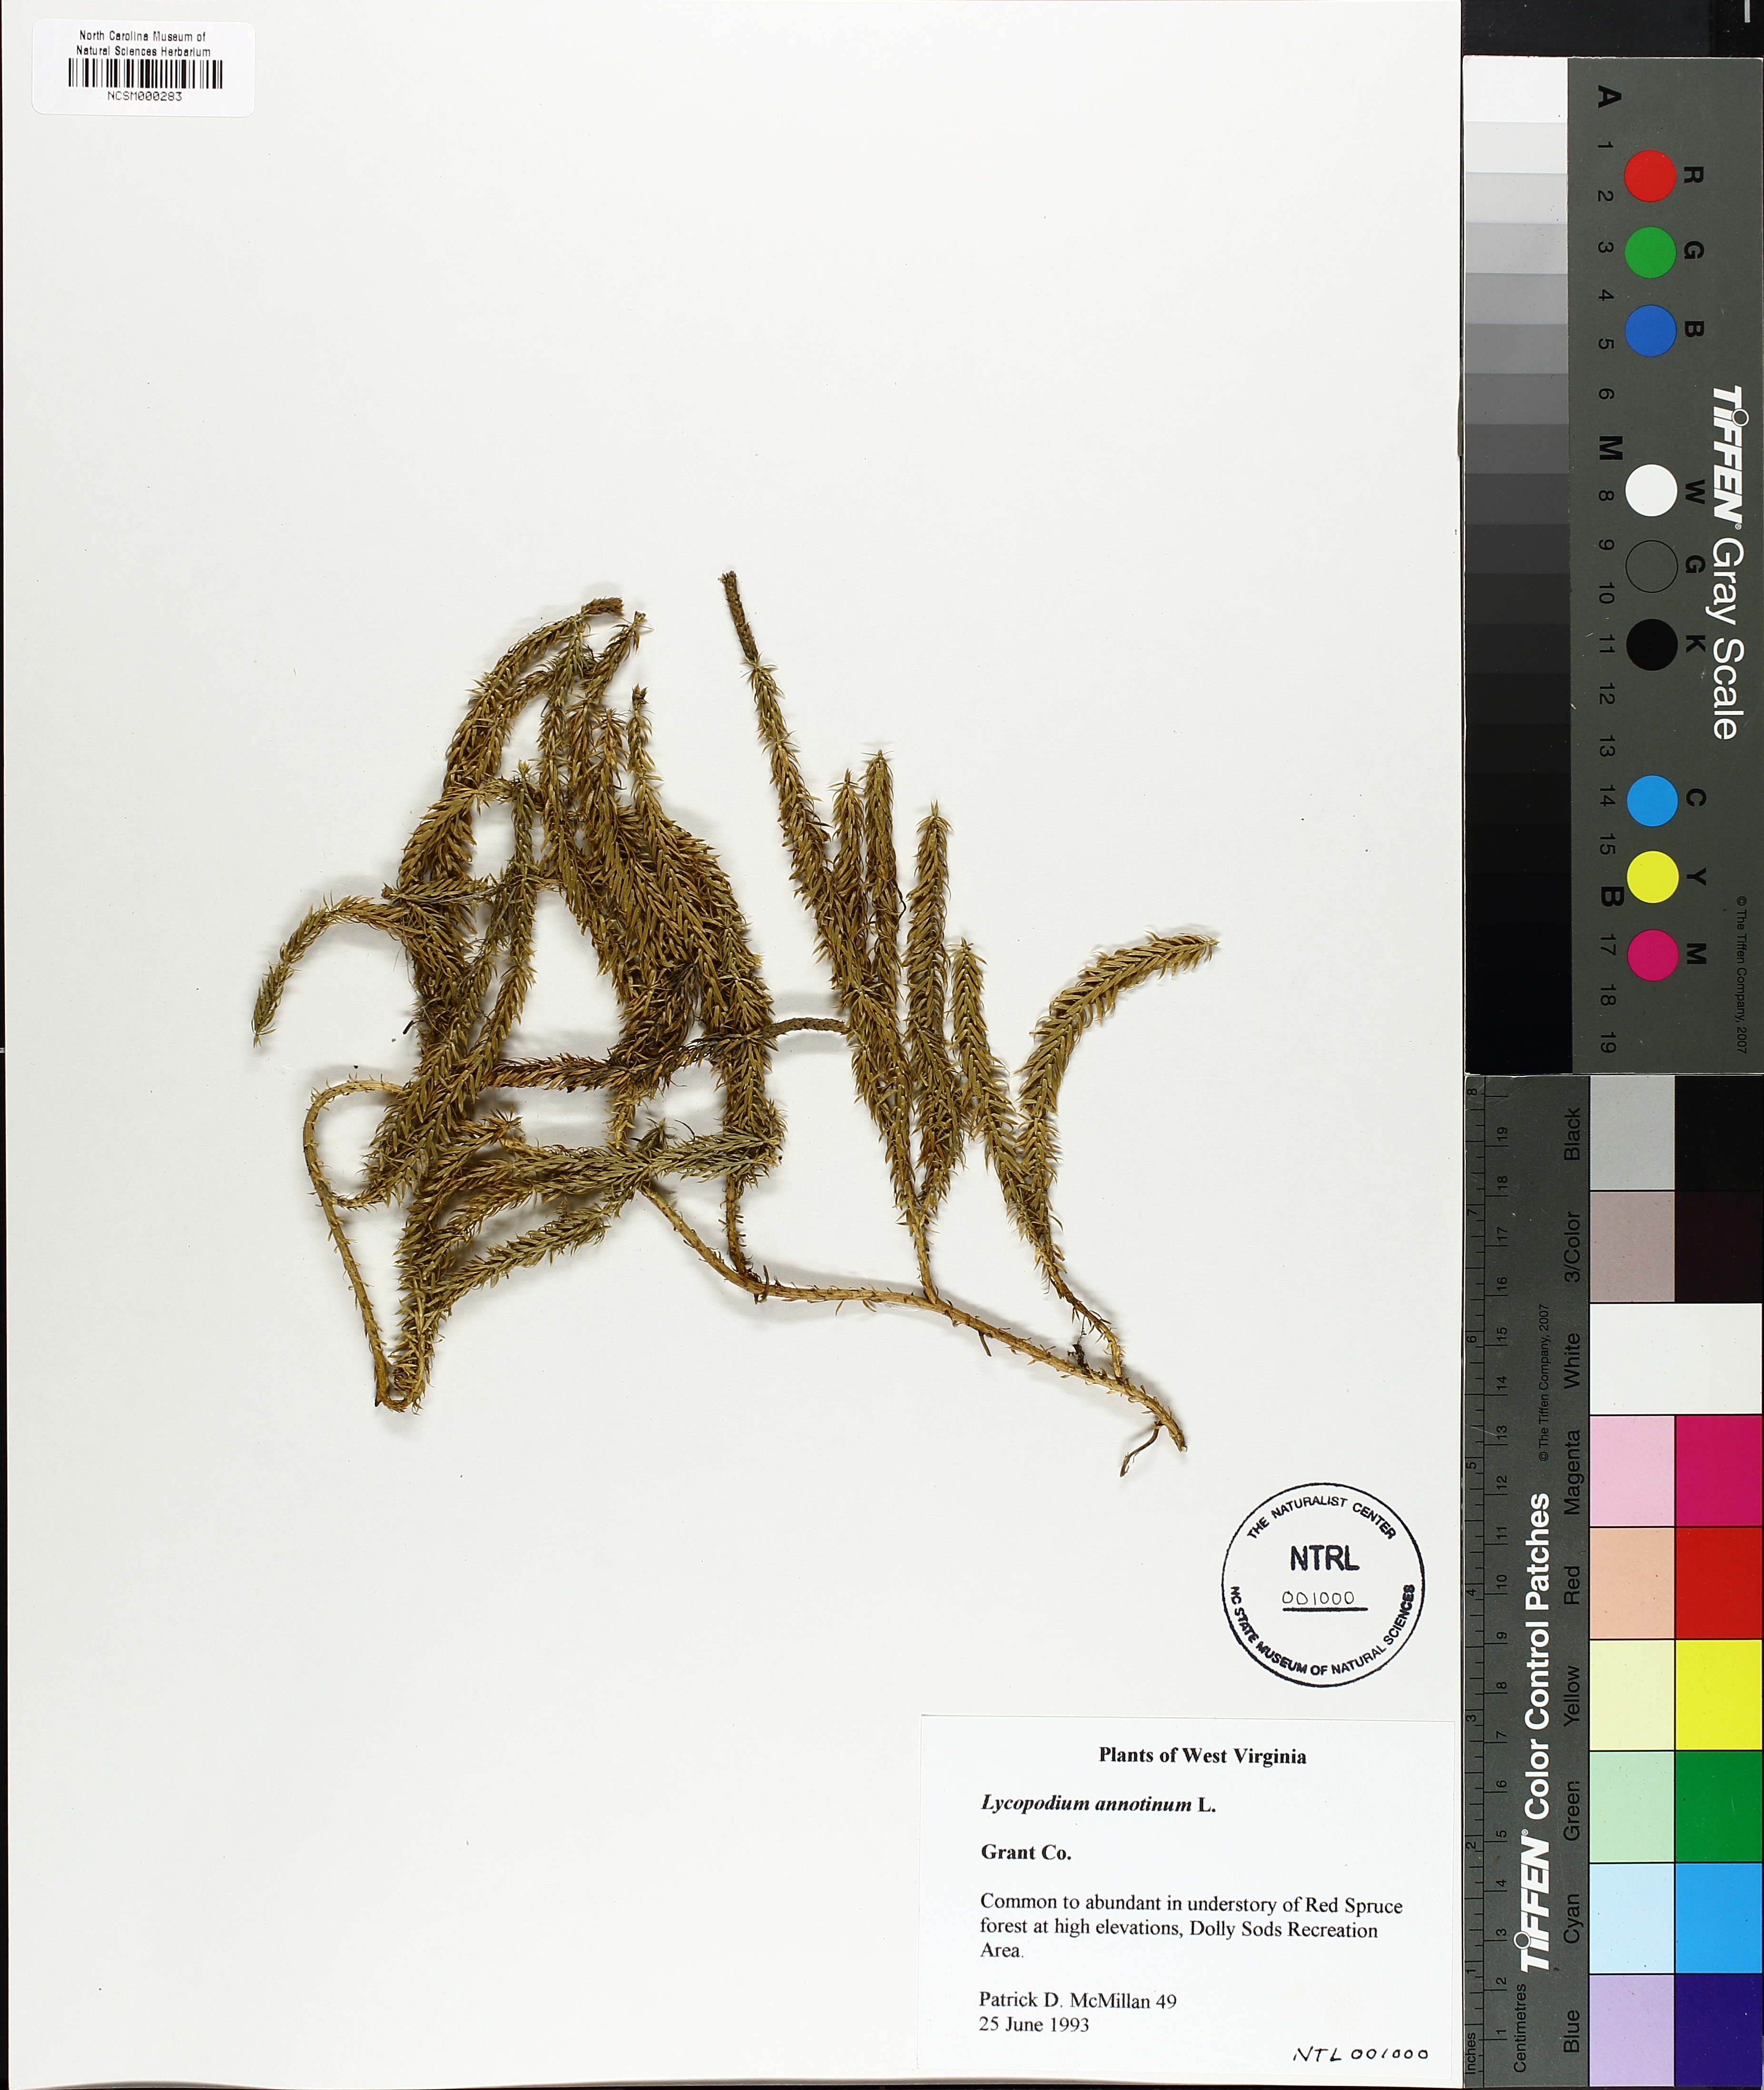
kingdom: Plantae
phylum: Tracheophyta
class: Lycopodiopsida
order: Lycopodiales
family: Lycopodiaceae
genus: Spinulum
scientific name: Spinulum annotinum
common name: Interrupted club-moss
